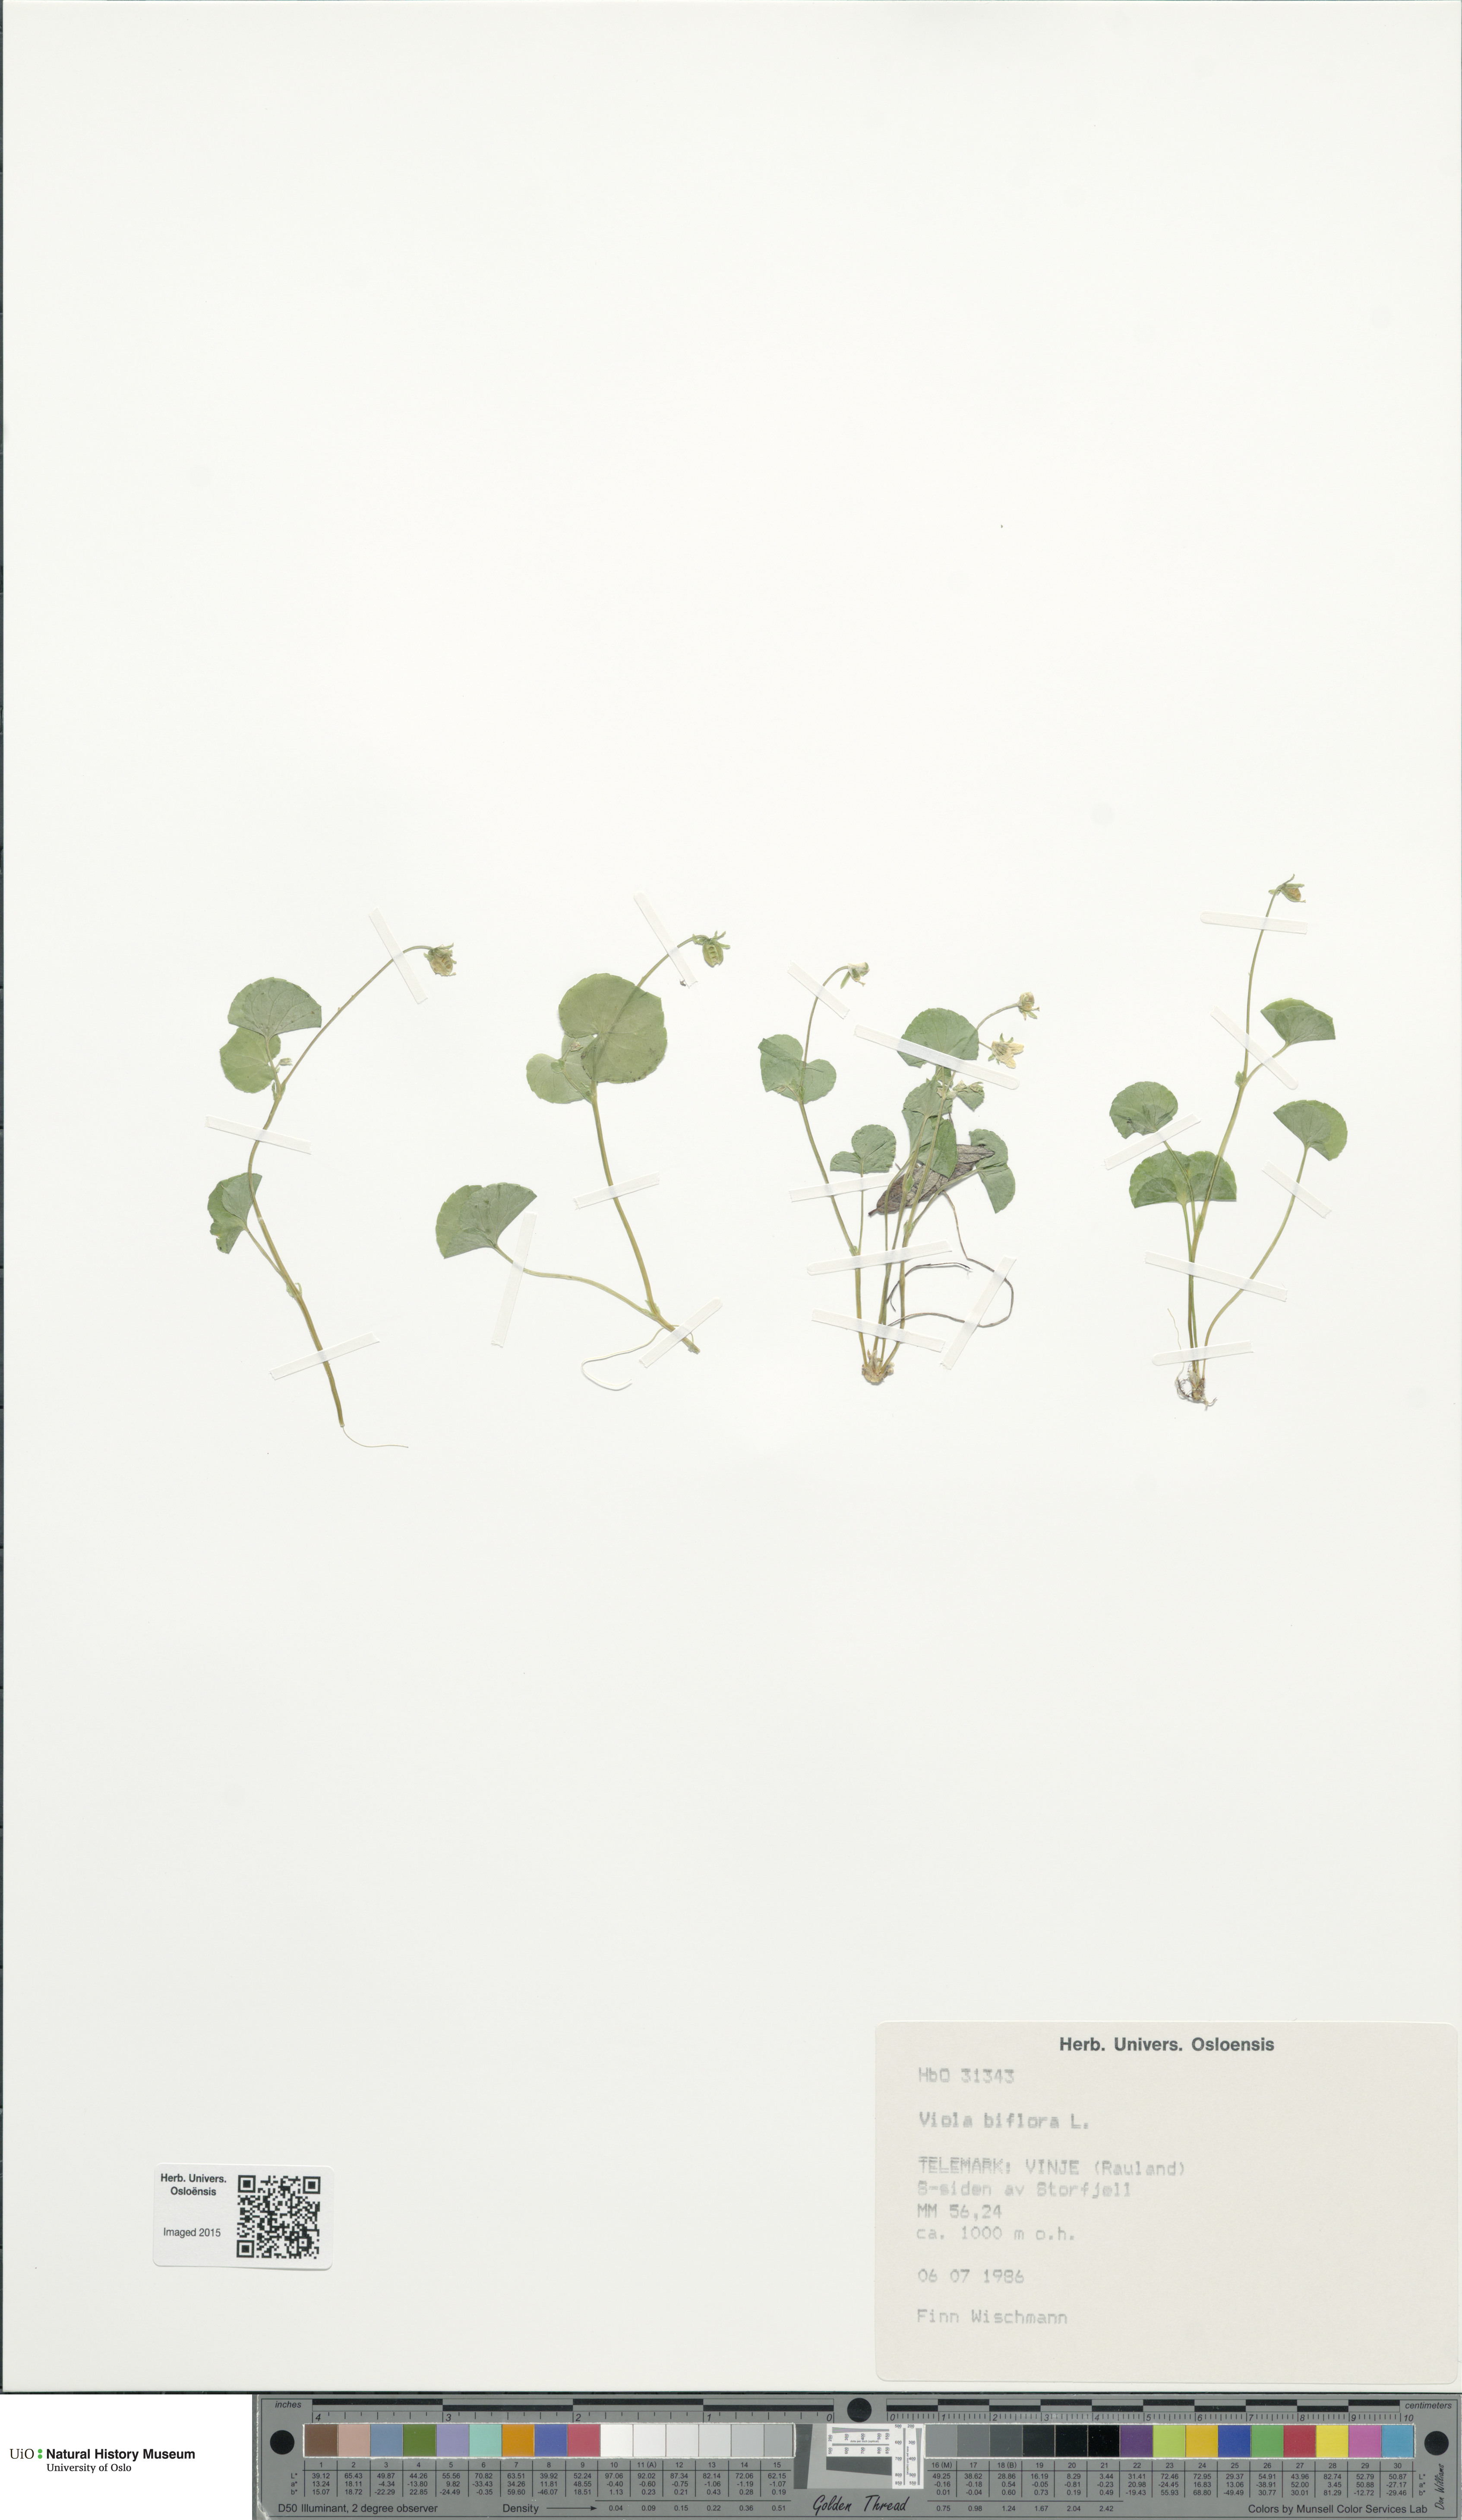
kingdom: Plantae
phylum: Tracheophyta
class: Magnoliopsida
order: Malpighiales
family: Violaceae
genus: Viola
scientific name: Viola biflora
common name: Alpine yellow violet
